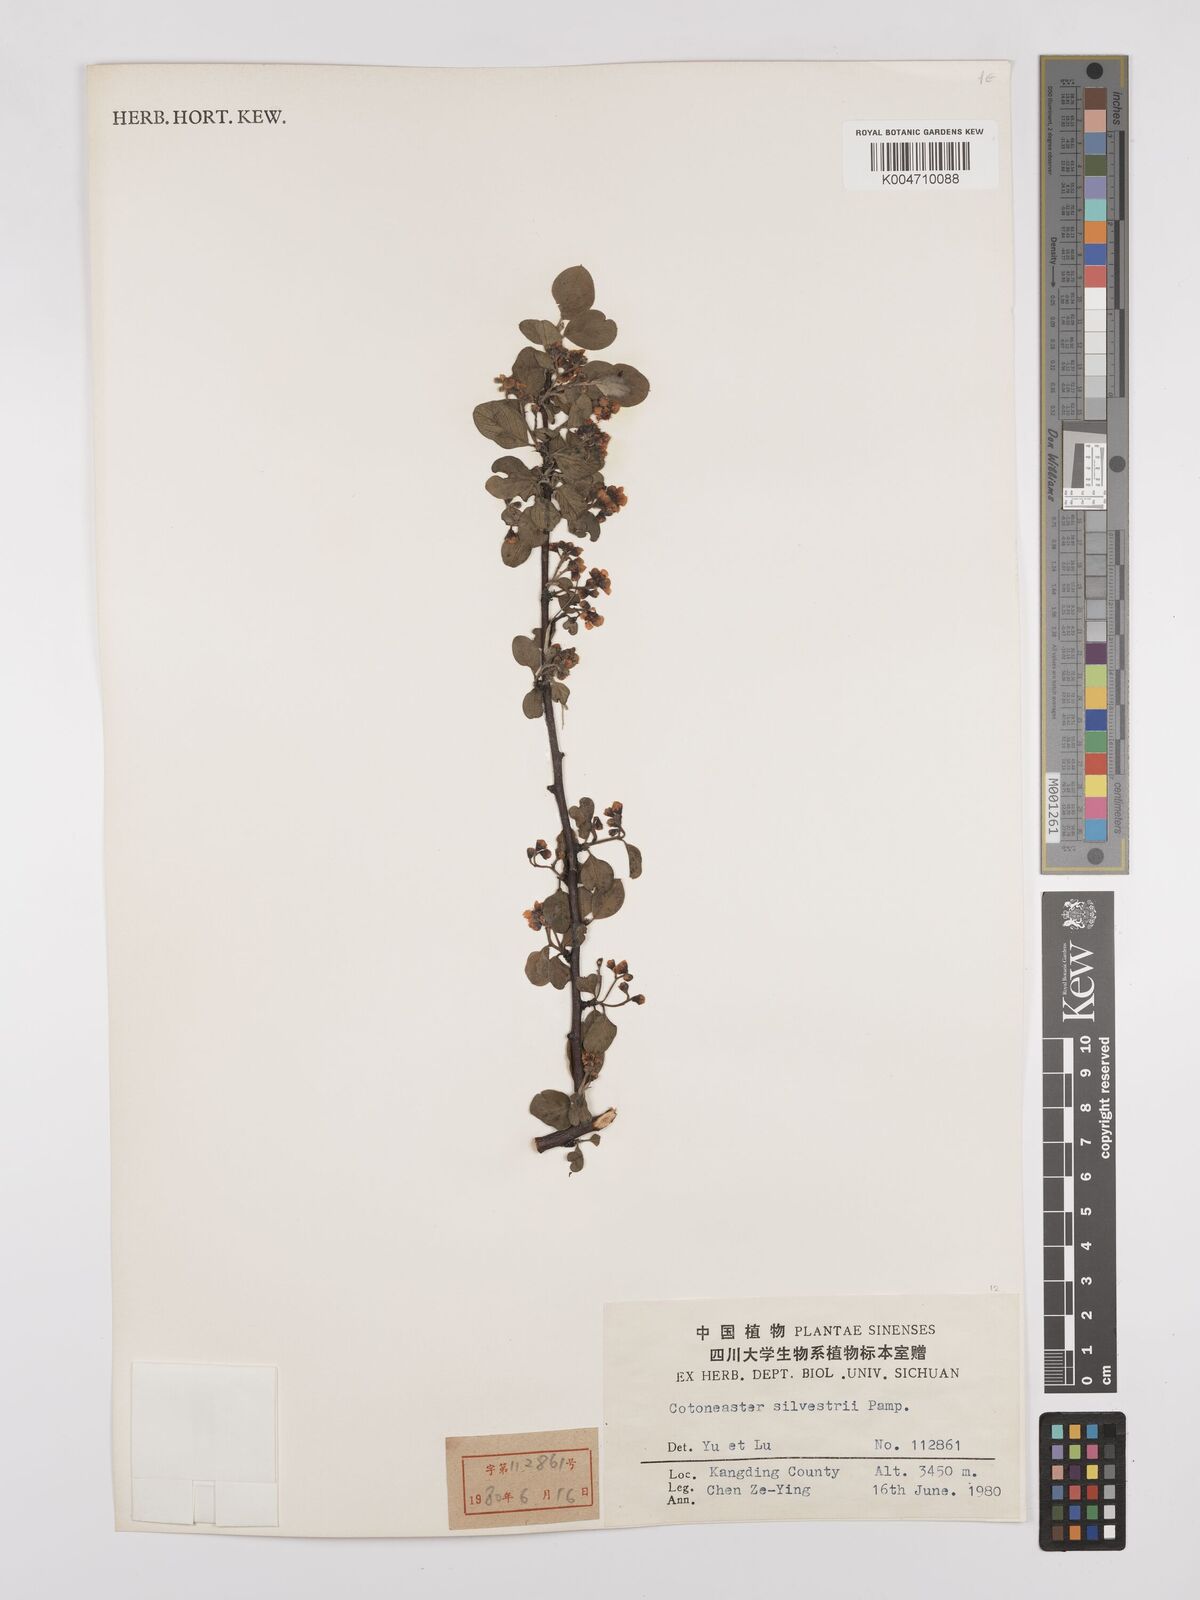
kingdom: Plantae
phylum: Tracheophyta
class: Magnoliopsida
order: Rosales
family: Rosaceae
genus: Cotoneaster
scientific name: Cotoneaster sylvestrii
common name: Rose
